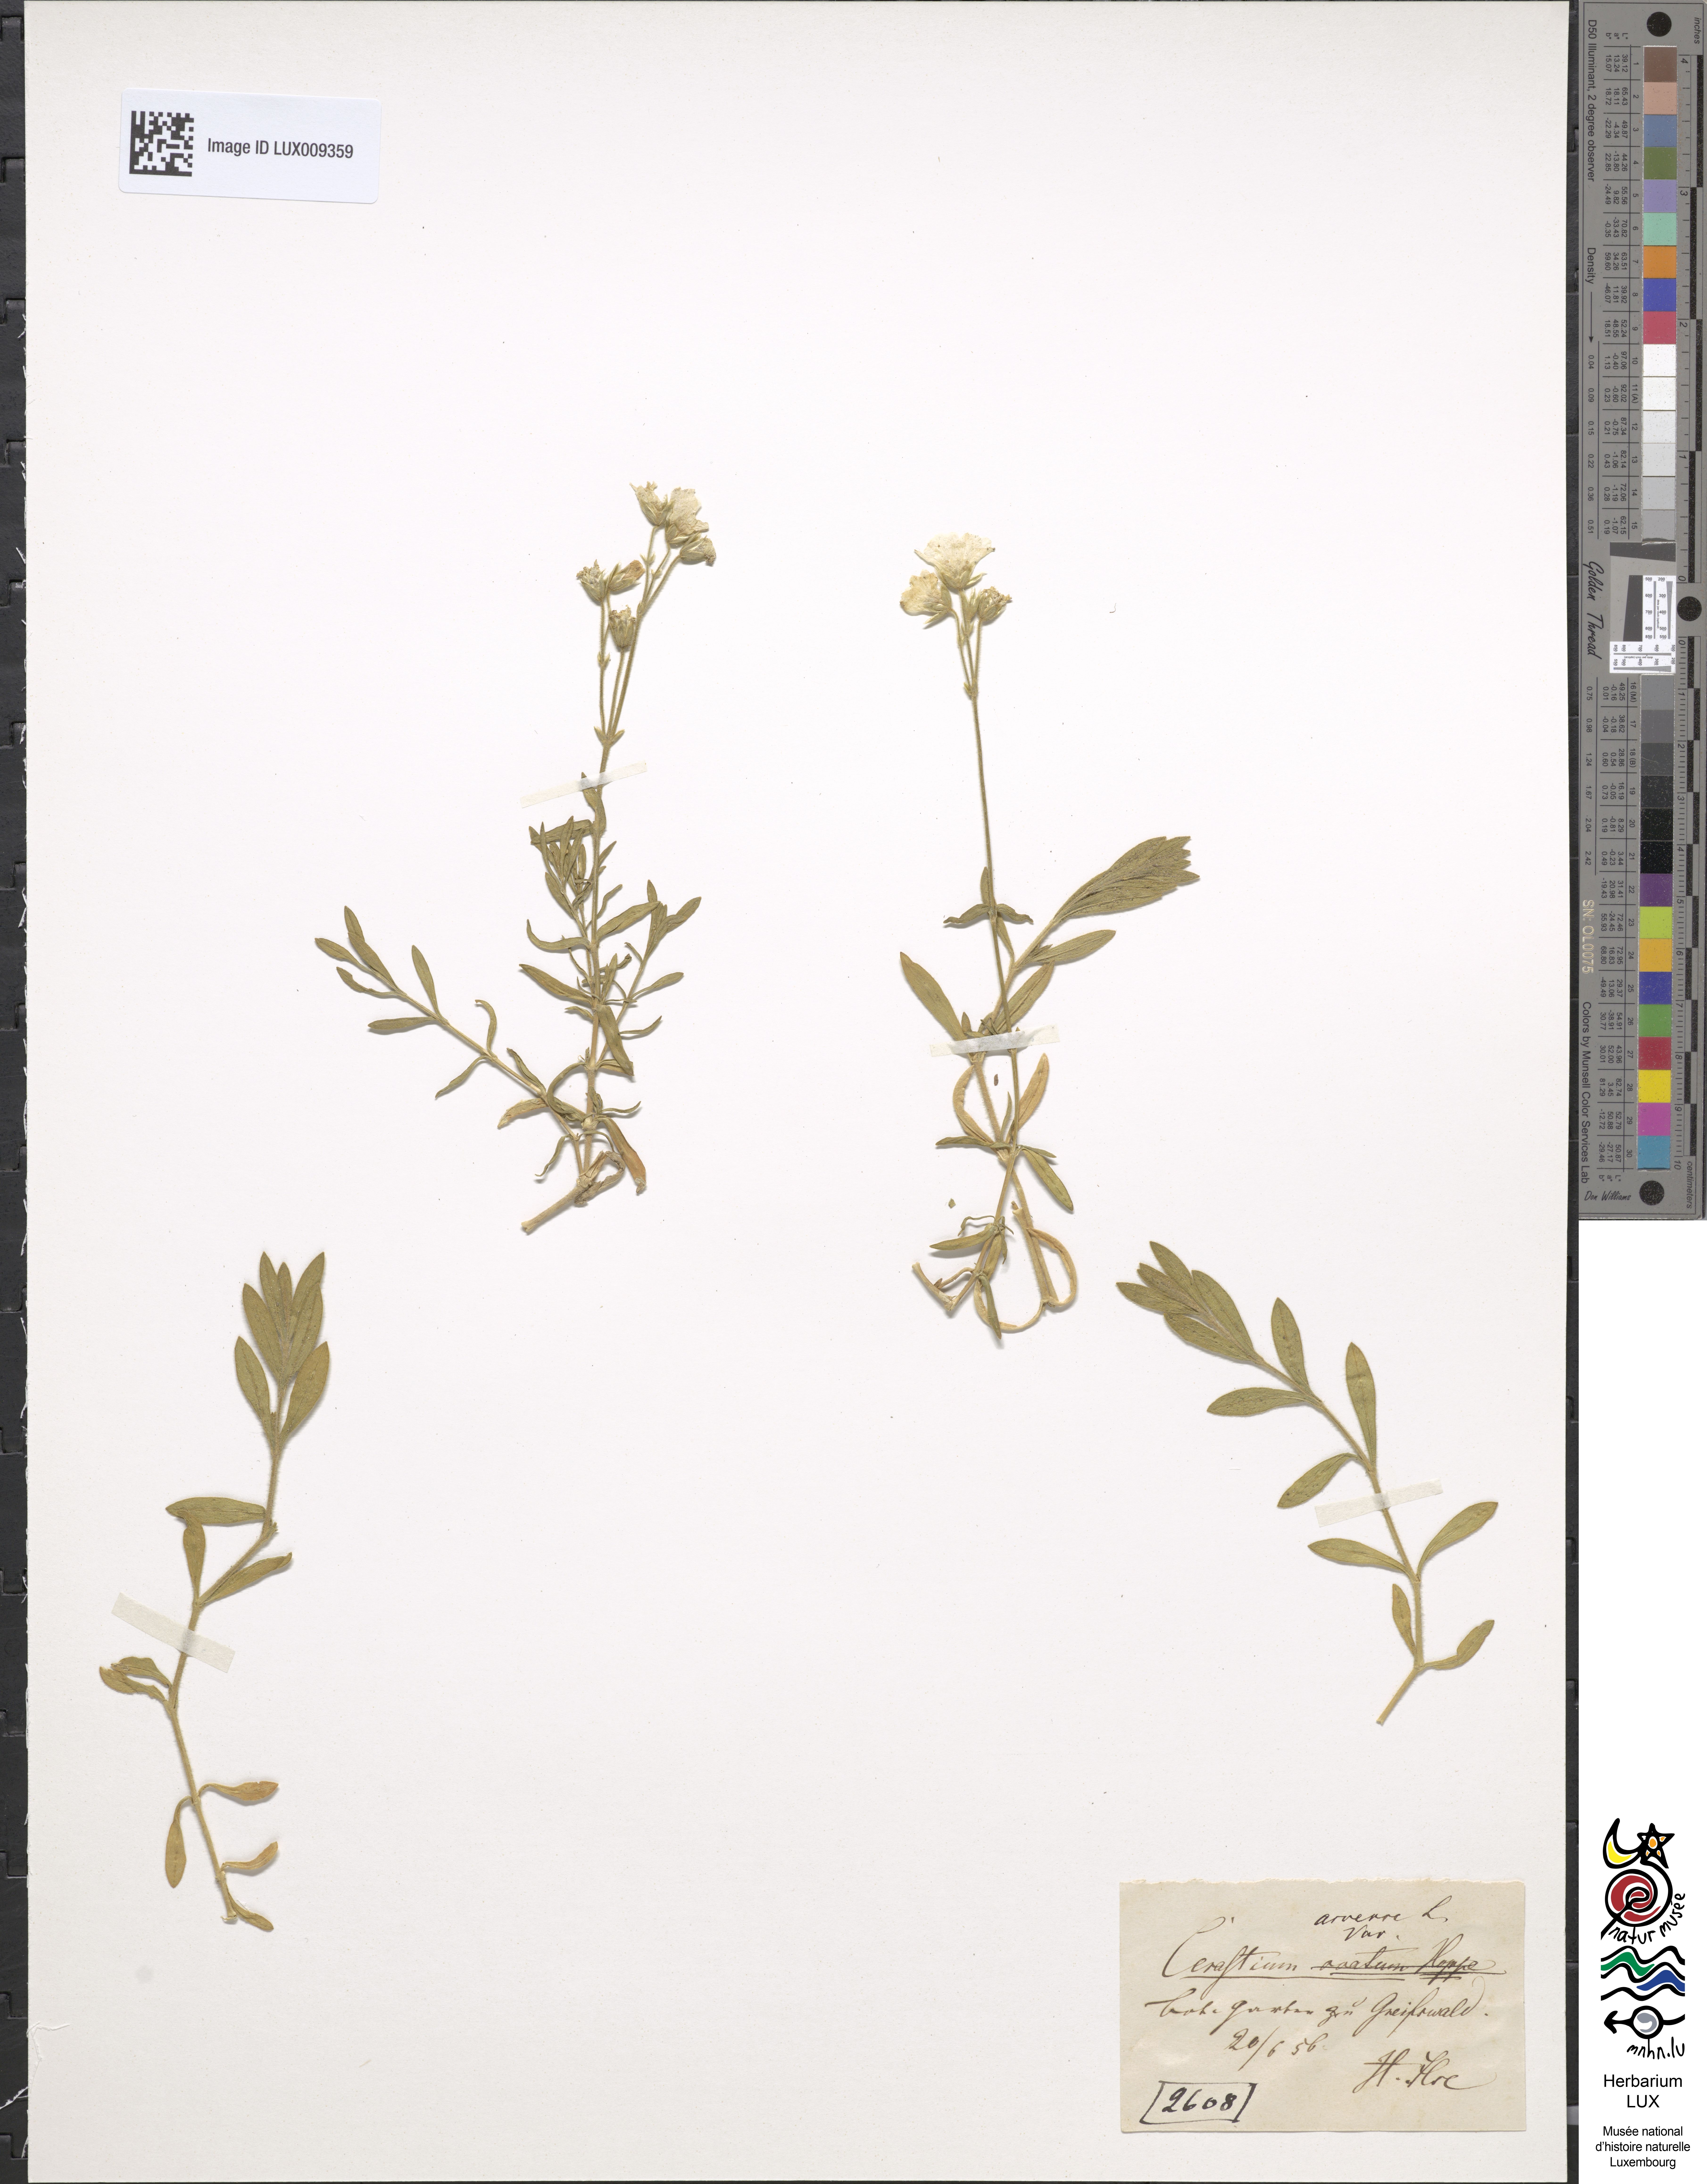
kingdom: Plantae
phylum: Tracheophyta
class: Magnoliopsida
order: Caryophyllales
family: Caryophyllaceae
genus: Cerastium
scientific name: Cerastium arvense
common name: Field mouse-ear
